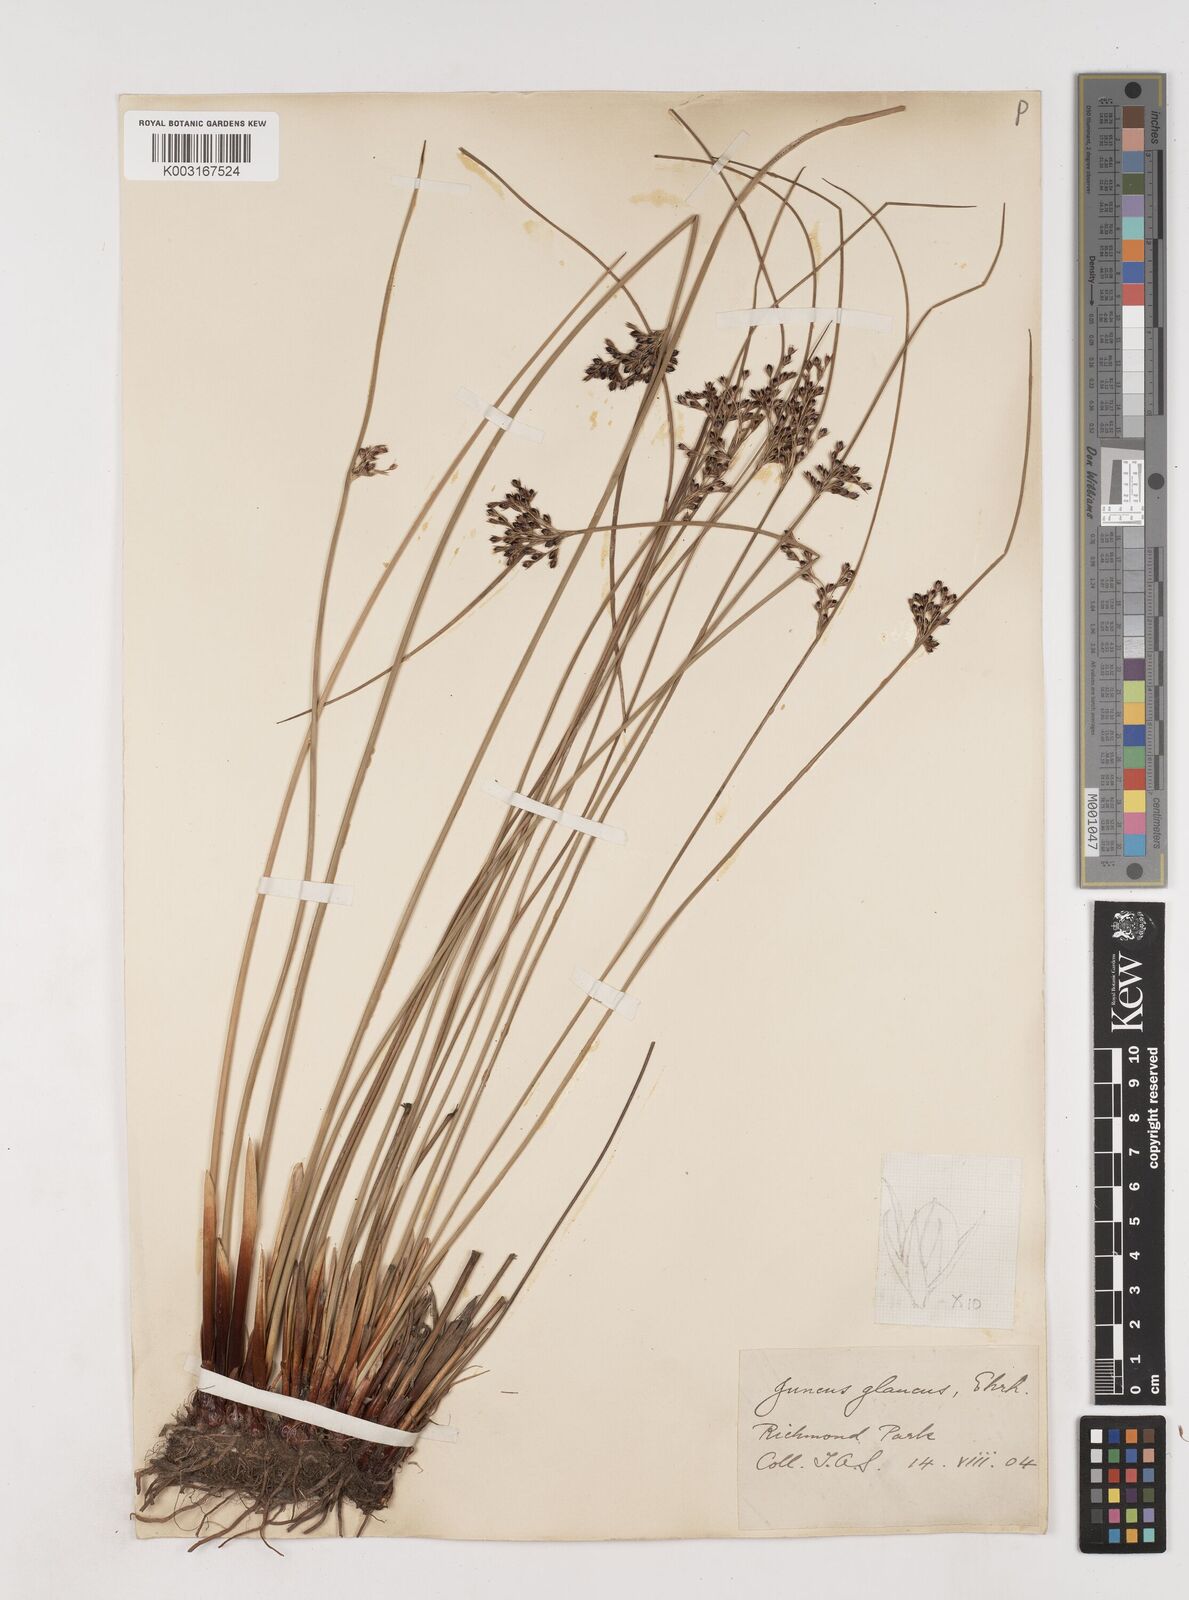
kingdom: Plantae
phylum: Tracheophyta
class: Liliopsida
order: Poales
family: Juncaceae
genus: Juncus
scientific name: Juncus inflexus
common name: Hard rush
